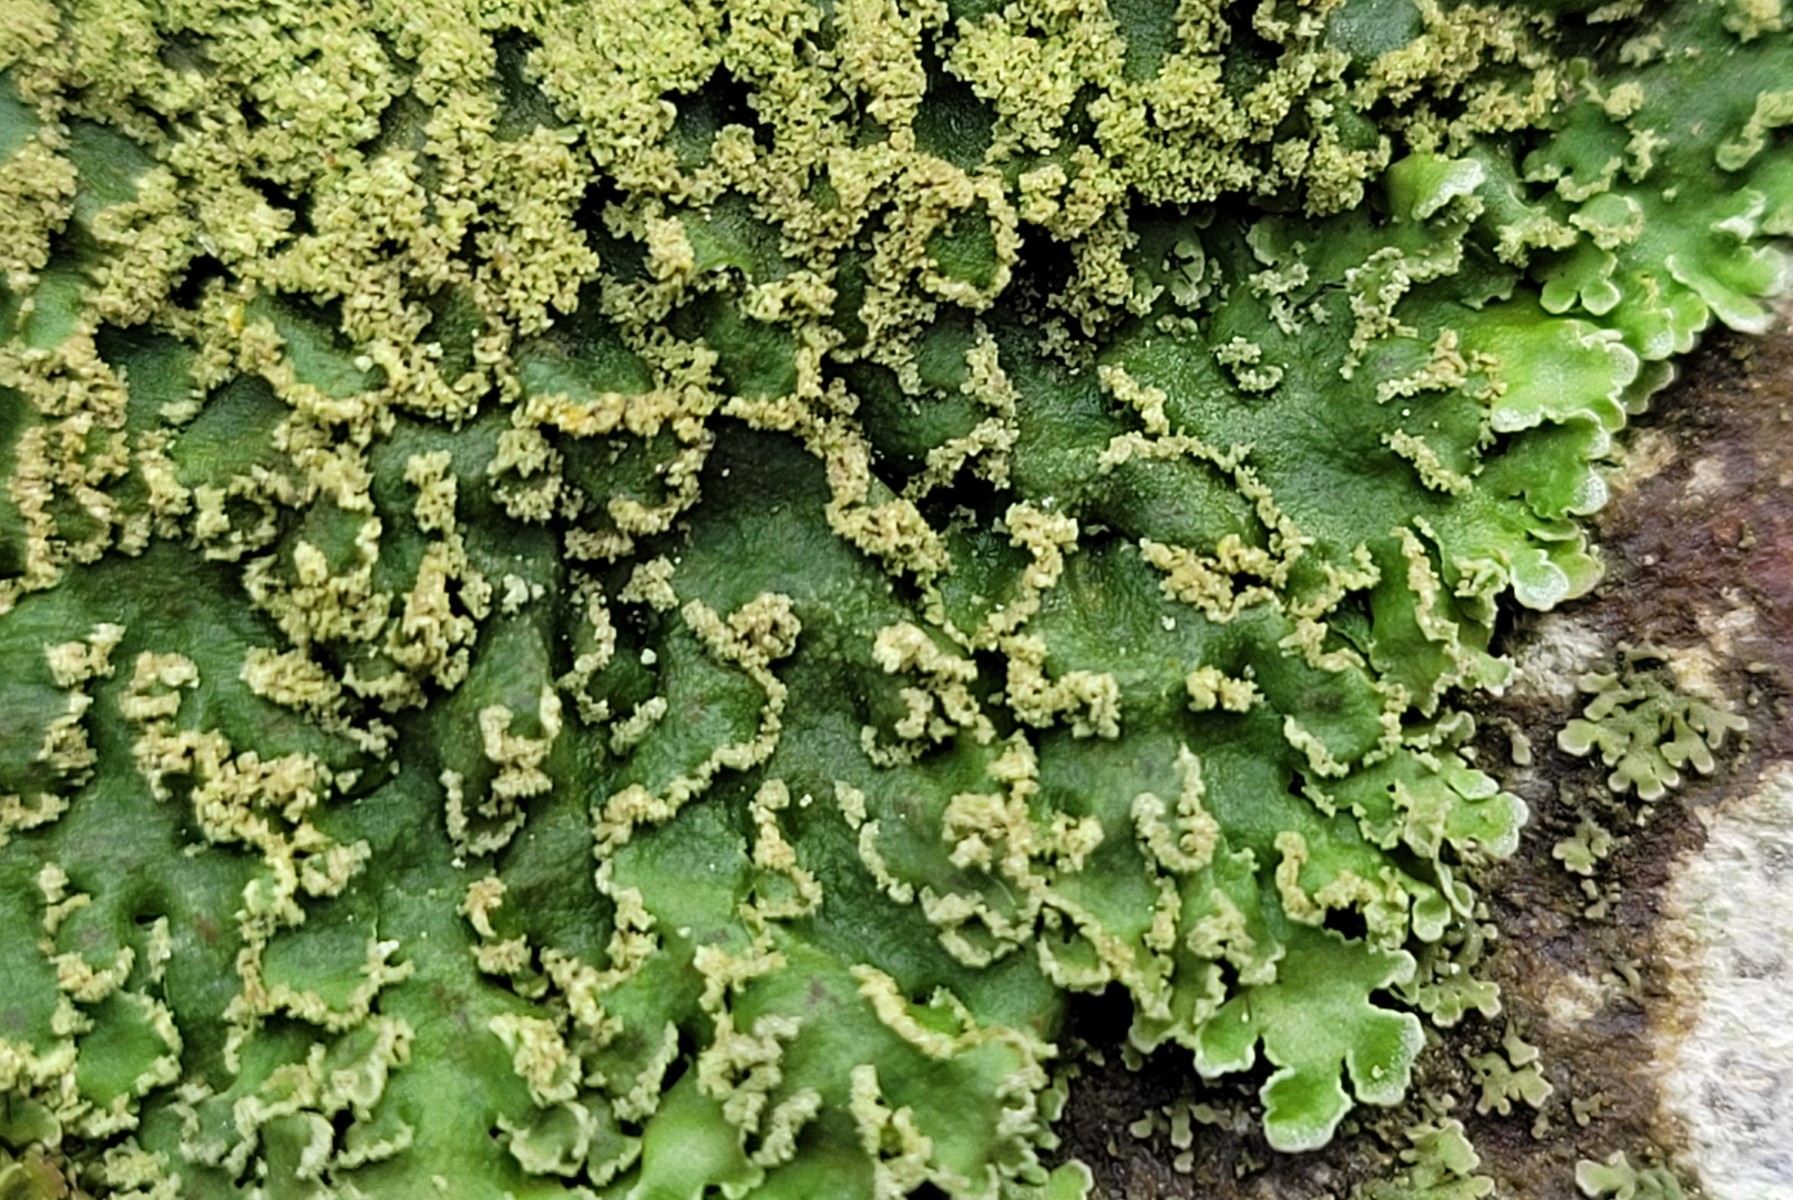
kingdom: Fungi
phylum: Ascomycota
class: Lecanoromycetes
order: Caliciales
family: Physciaceae
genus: Physconia
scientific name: Physconia enteroxantha
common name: grynet dugrosetlav
